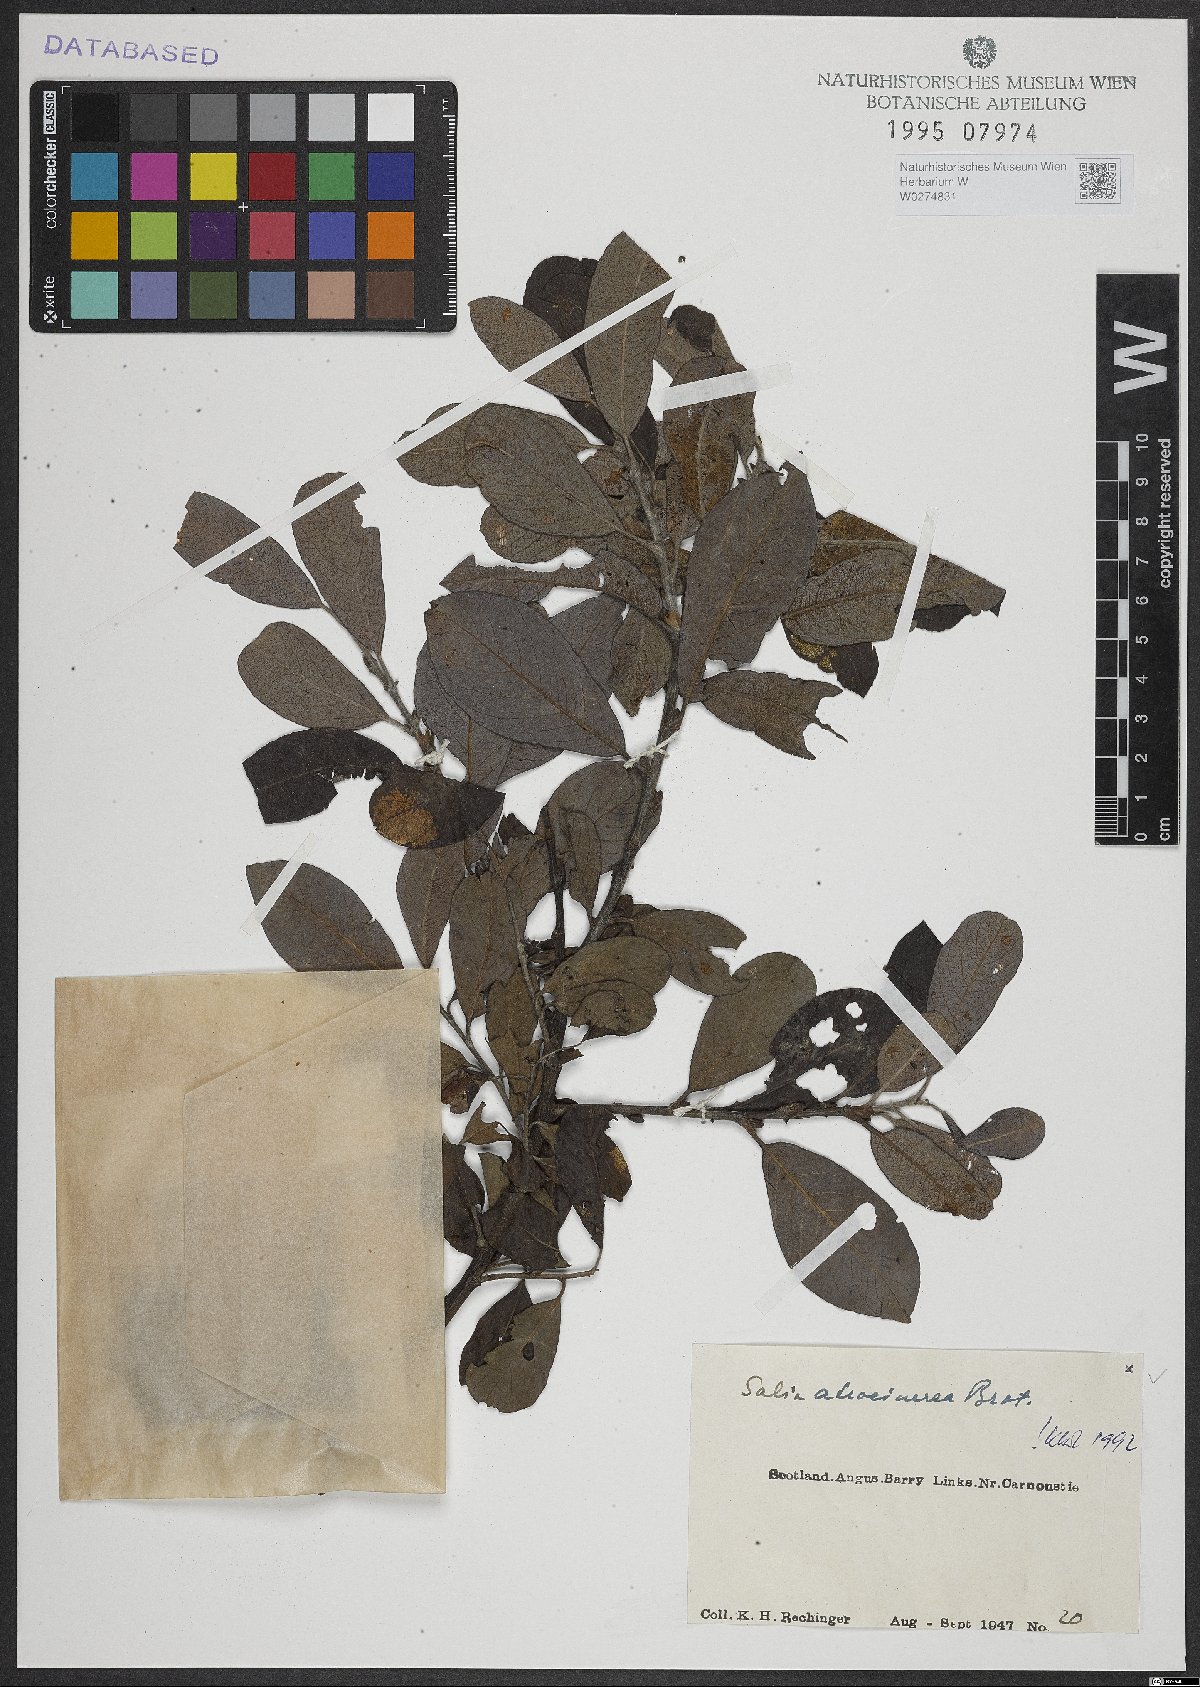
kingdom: Plantae
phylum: Tracheophyta
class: Magnoliopsida
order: Malpighiales
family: Salicaceae
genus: Salix
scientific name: Salix atrocinerea
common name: Rusty willow
